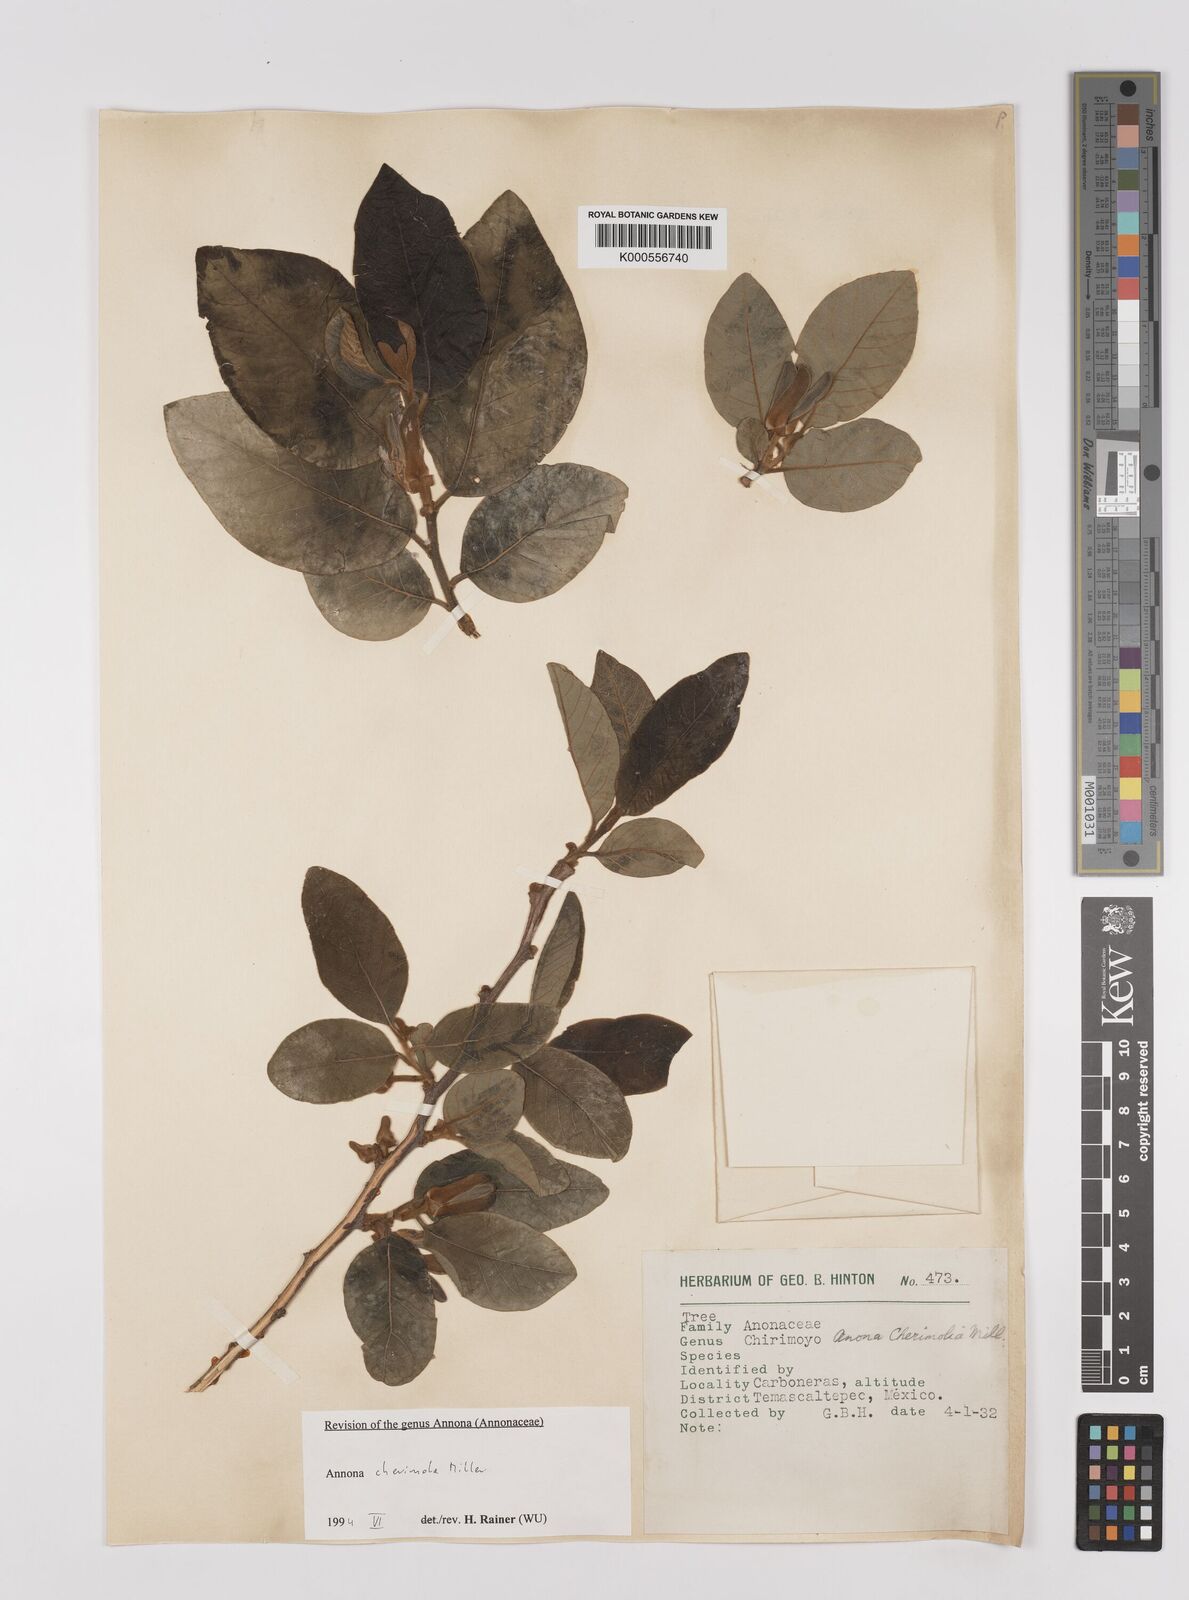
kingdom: Plantae
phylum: Tracheophyta
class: Magnoliopsida
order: Magnoliales
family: Annonaceae
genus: Annona
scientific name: Annona cherimola
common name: Cherimoya
